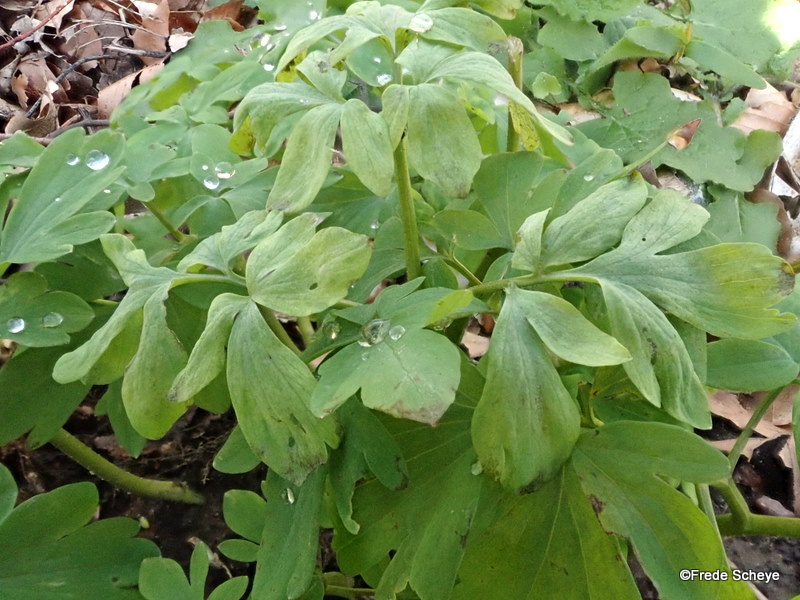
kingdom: Chromista
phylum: Oomycota
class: Peronosporea
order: Peronosporales
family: Peronosporaceae
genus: Peronospora
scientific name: Peronospora bulbocapni
